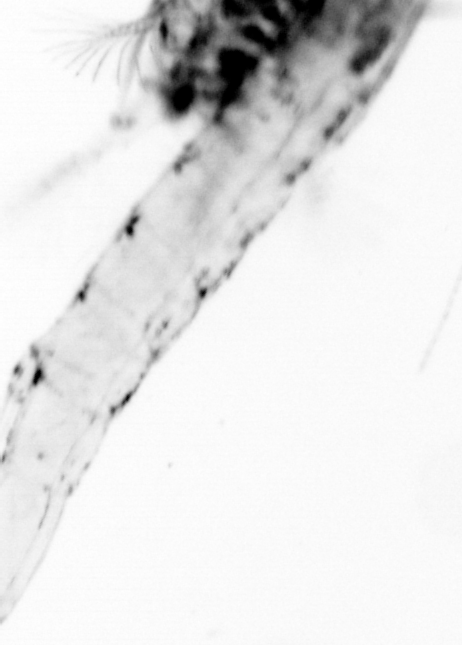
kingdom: Animalia
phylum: Chaetognatha
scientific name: Chaetognatha
